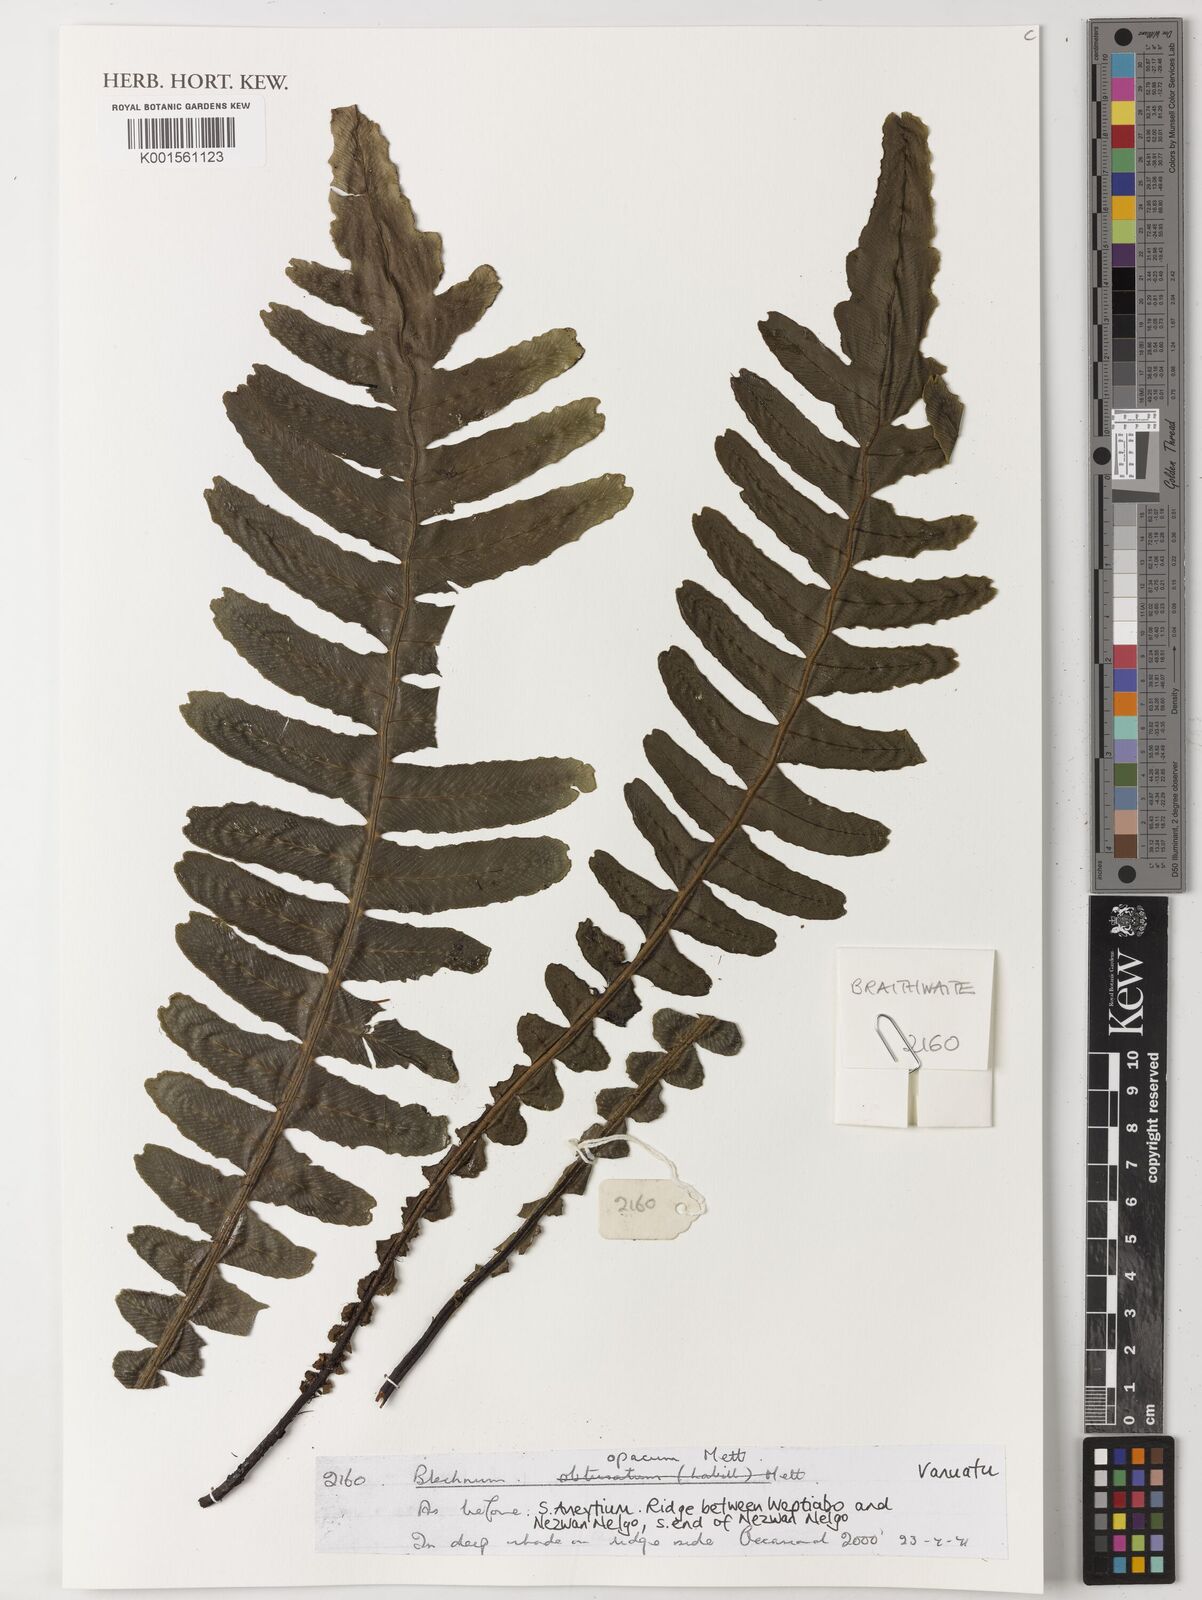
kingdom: Plantae
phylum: Tracheophyta
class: Polypodiopsida
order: Polypodiales
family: Blechnaceae
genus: Cranfillia
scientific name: Cranfillia opaca
